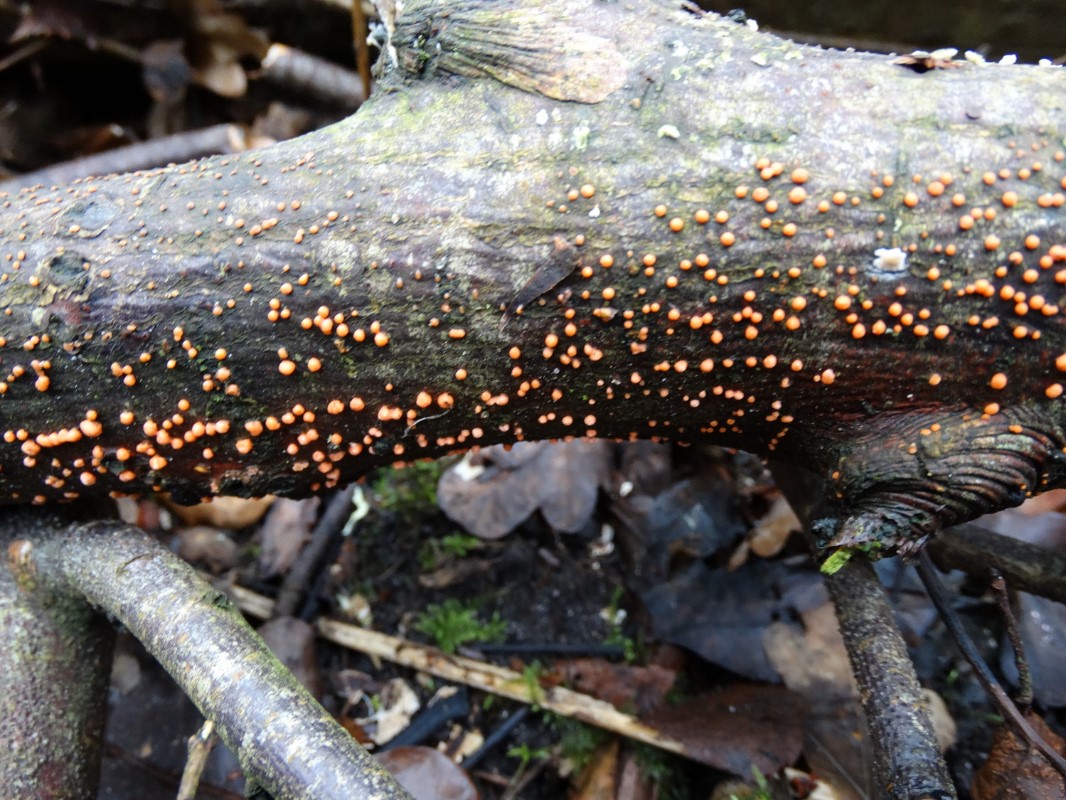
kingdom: Fungi
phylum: Ascomycota
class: Sordariomycetes
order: Hypocreales
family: Nectriaceae
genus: Nectria
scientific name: Nectria cinnabarina
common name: almindelig cinnobersvamp
